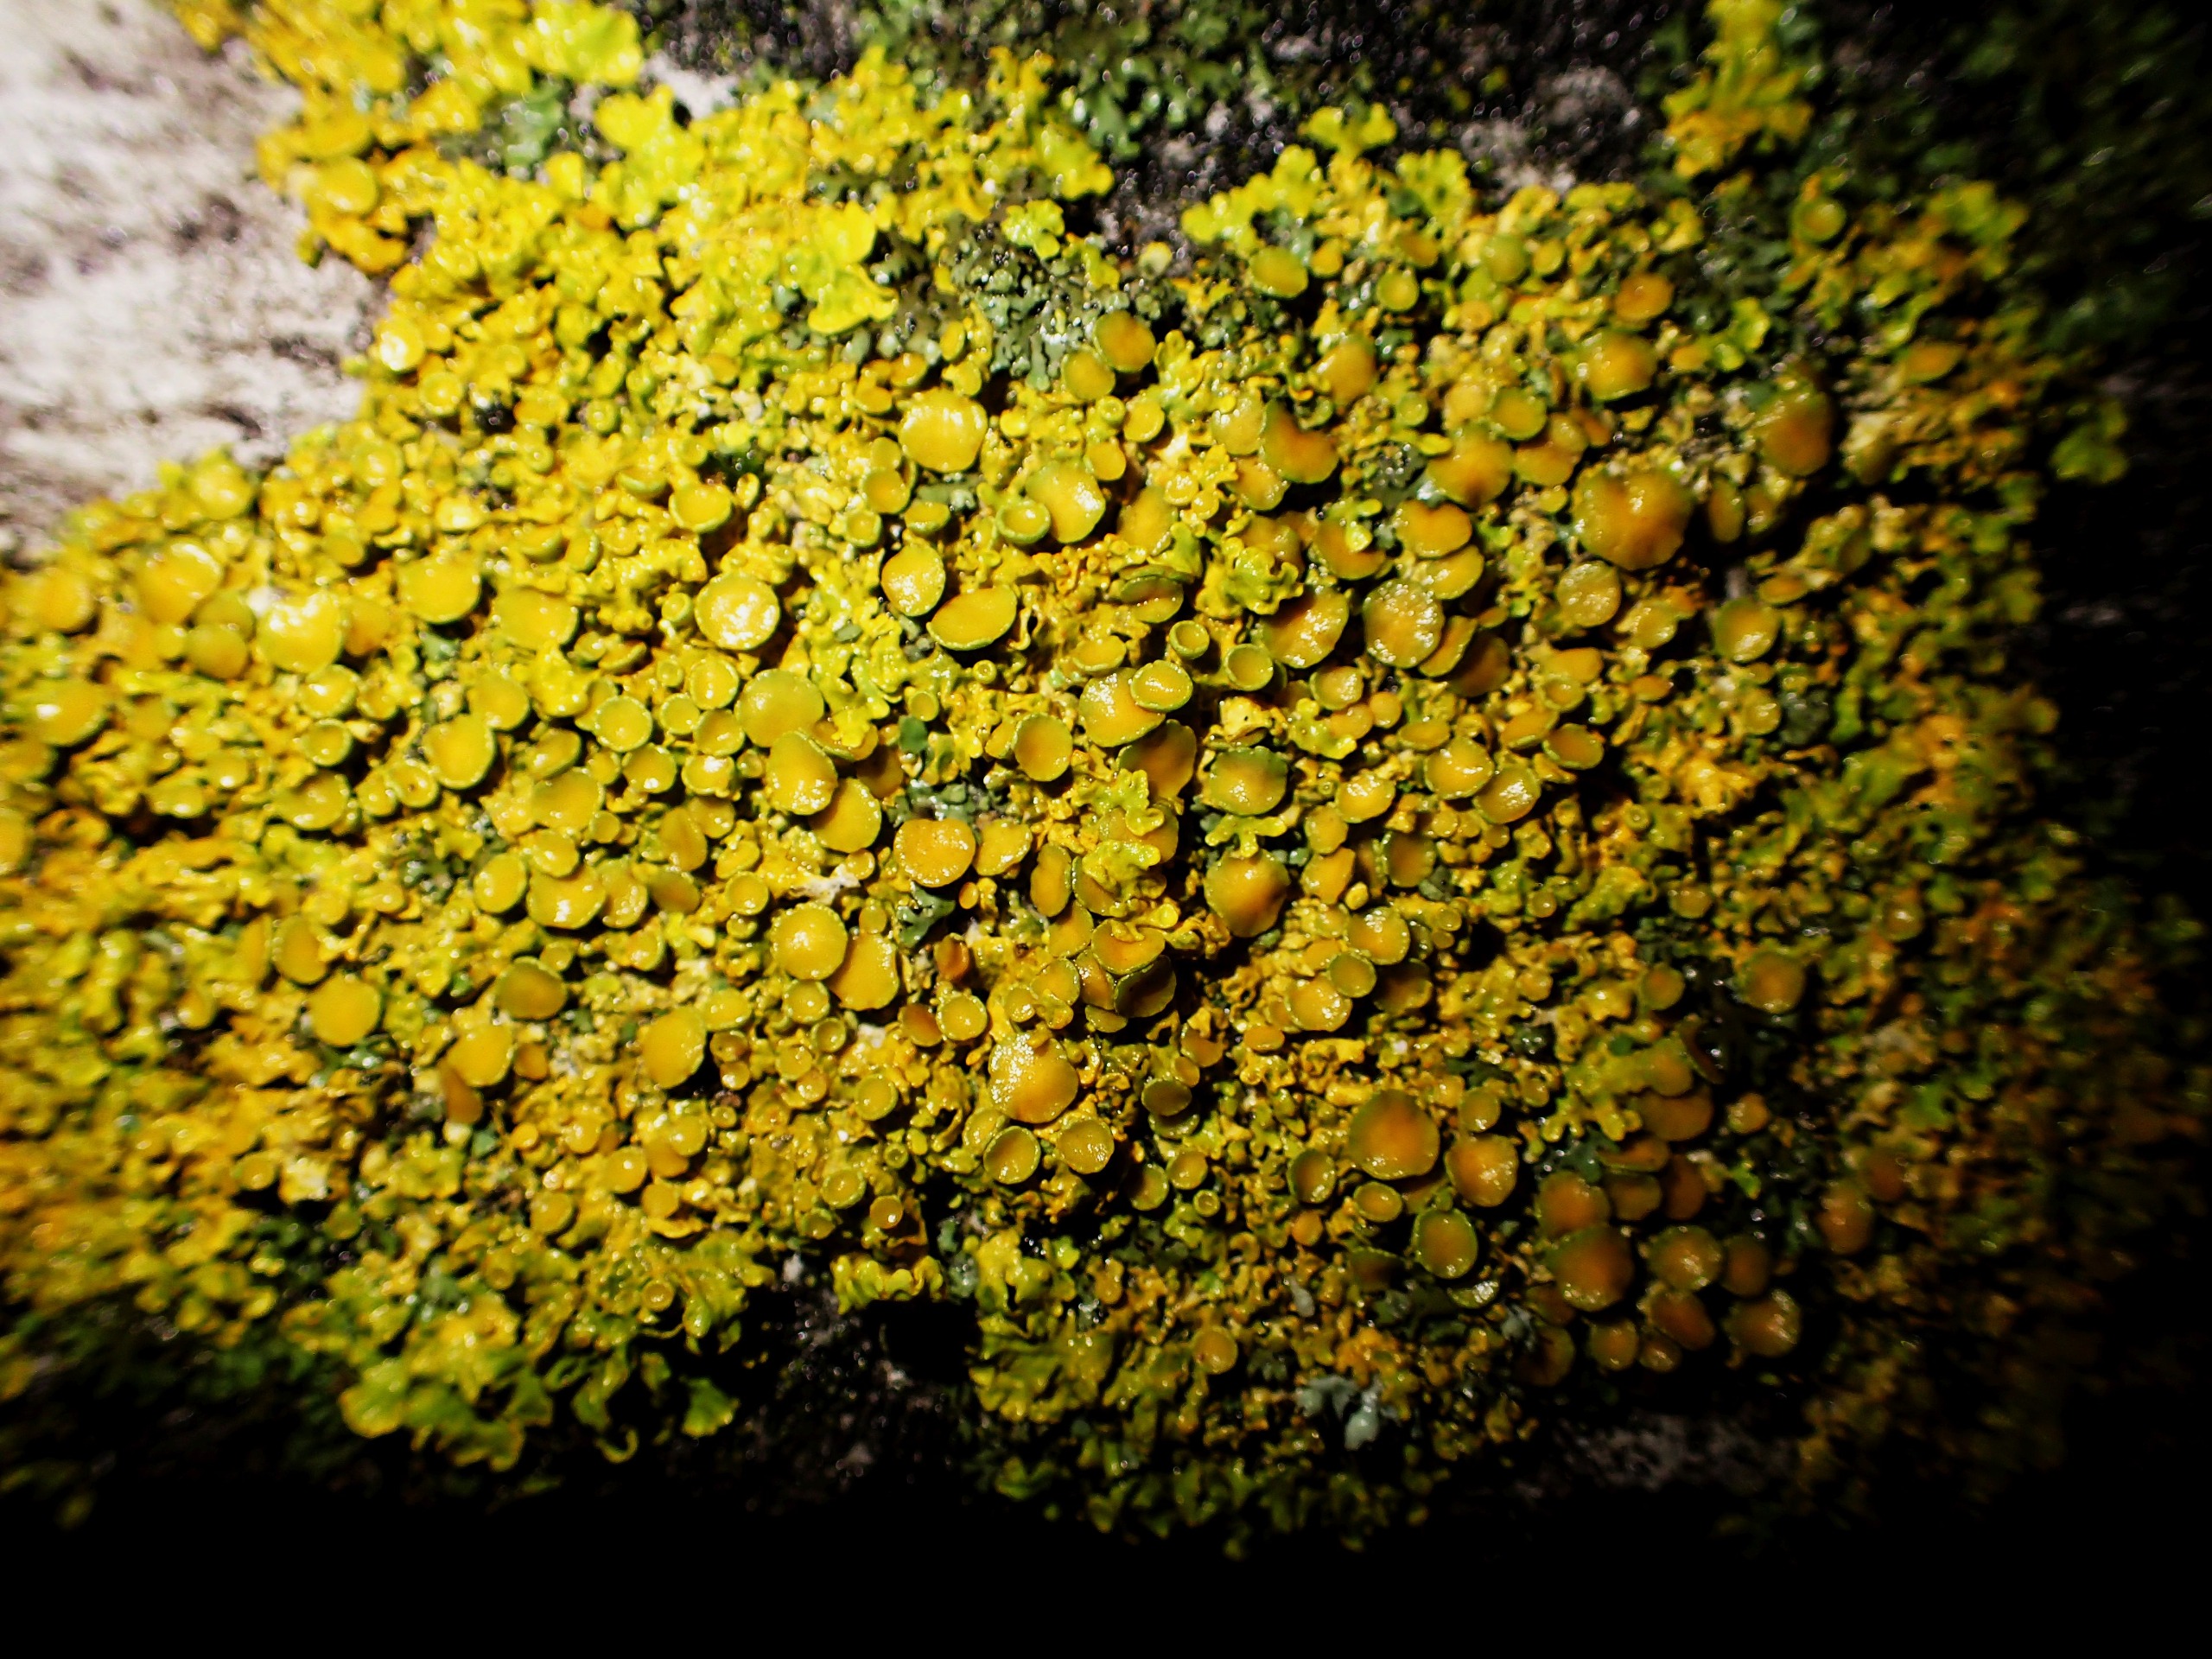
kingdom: Fungi
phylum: Ascomycota
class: Lecanoromycetes
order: Teloschistales
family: Teloschistaceae
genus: Xanthoria
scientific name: Xanthoria parietina
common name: Almindelig væggelav
